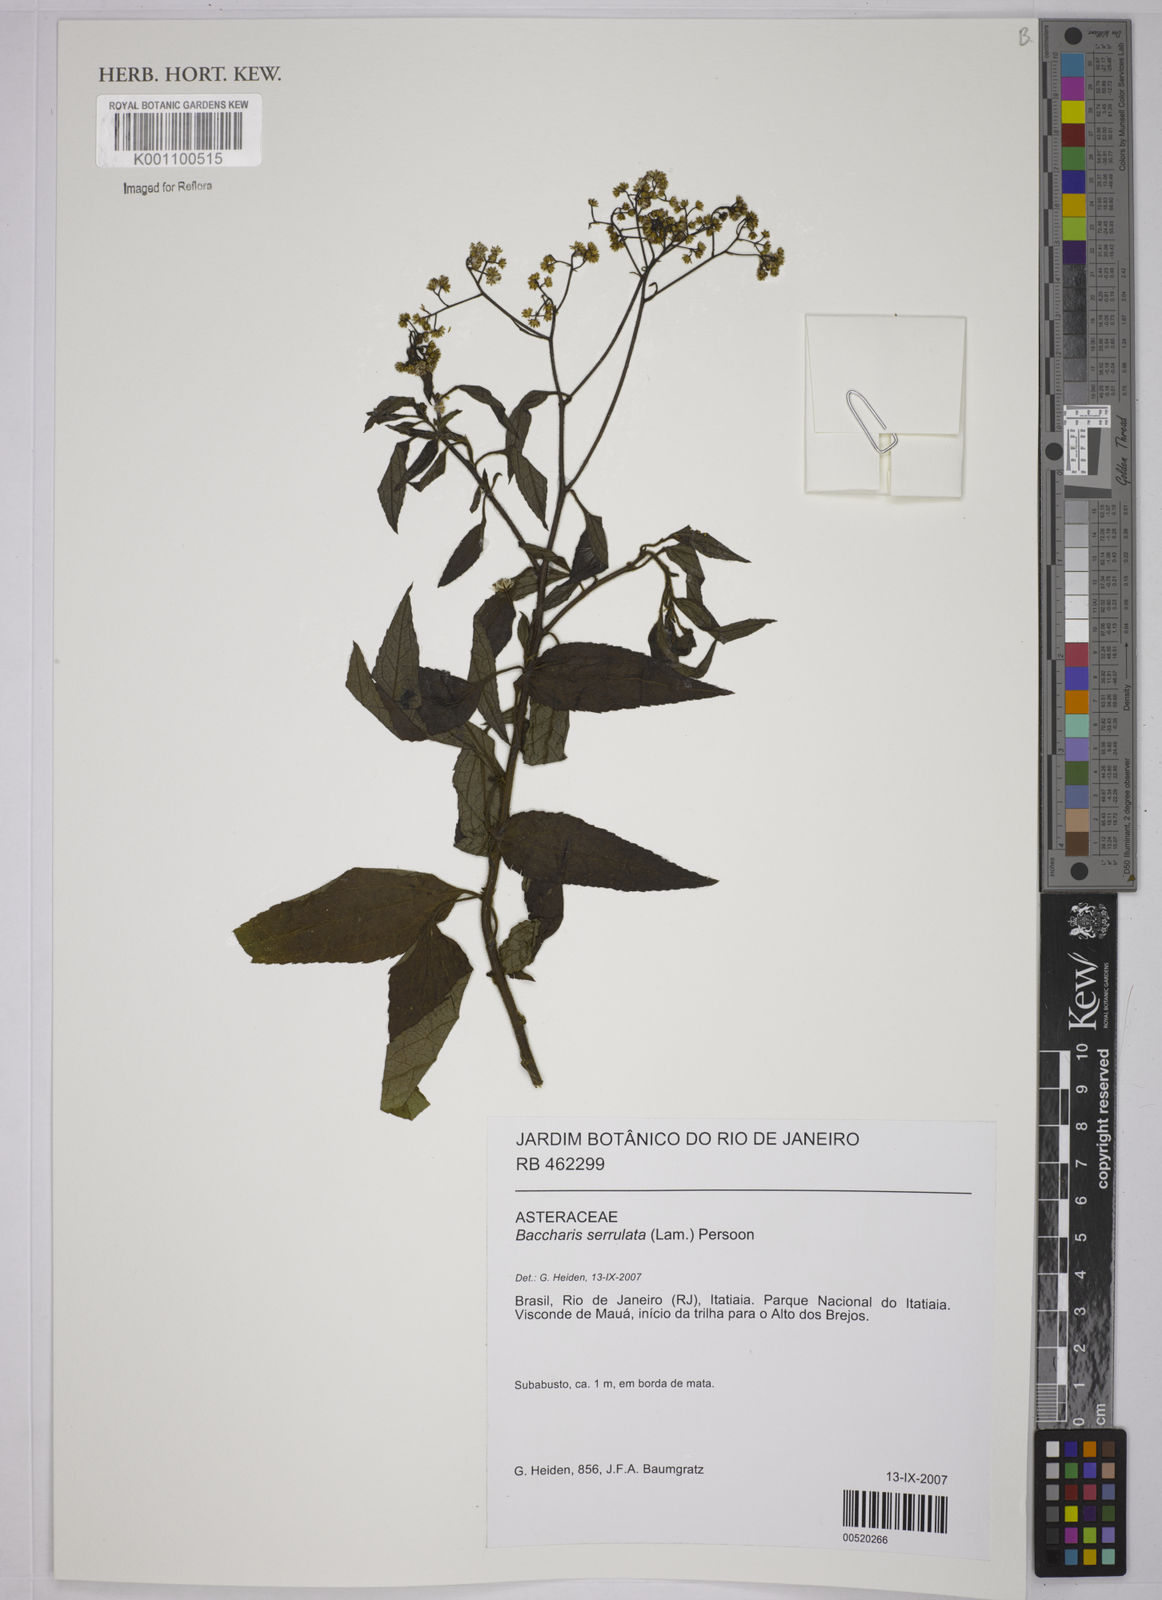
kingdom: Plantae
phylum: Tracheophyta
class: Magnoliopsida
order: Asterales
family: Asteraceae
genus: Baccharis
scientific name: Baccharis serrulata
